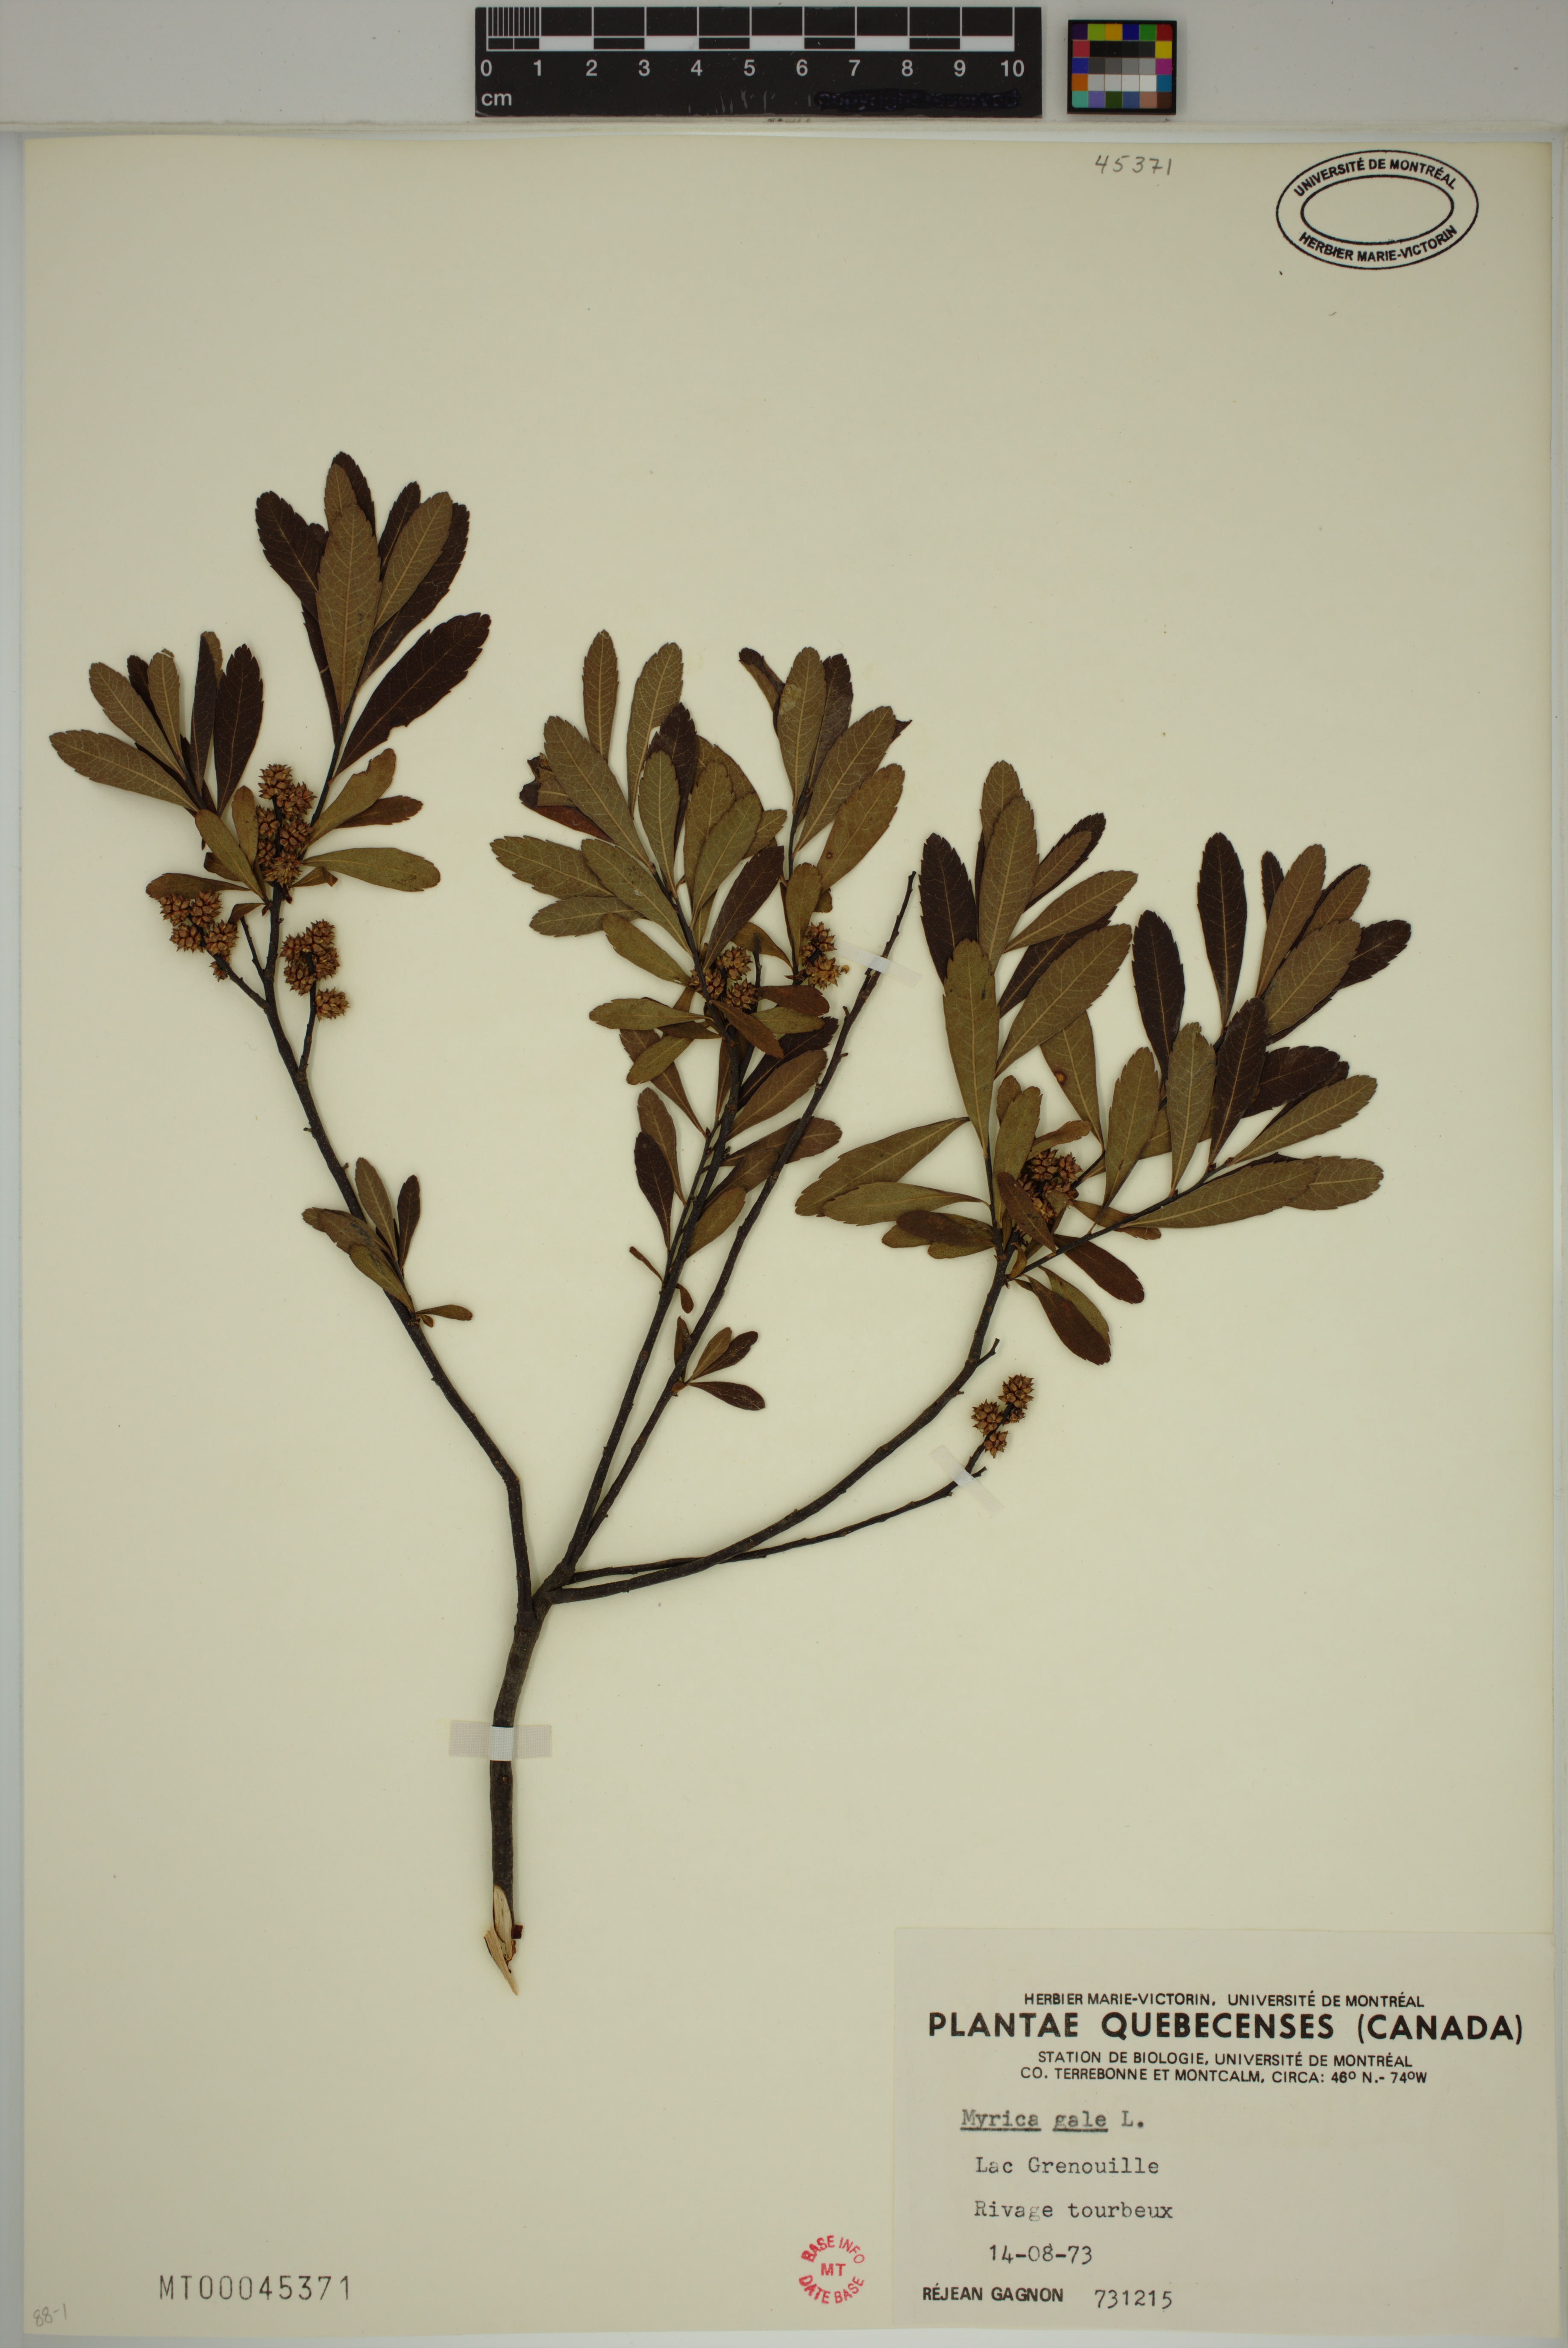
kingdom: Plantae
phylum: Tracheophyta
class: Magnoliopsida
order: Fagales
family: Myricaceae
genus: Myrica
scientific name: Myrica gale
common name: Sweet gale
